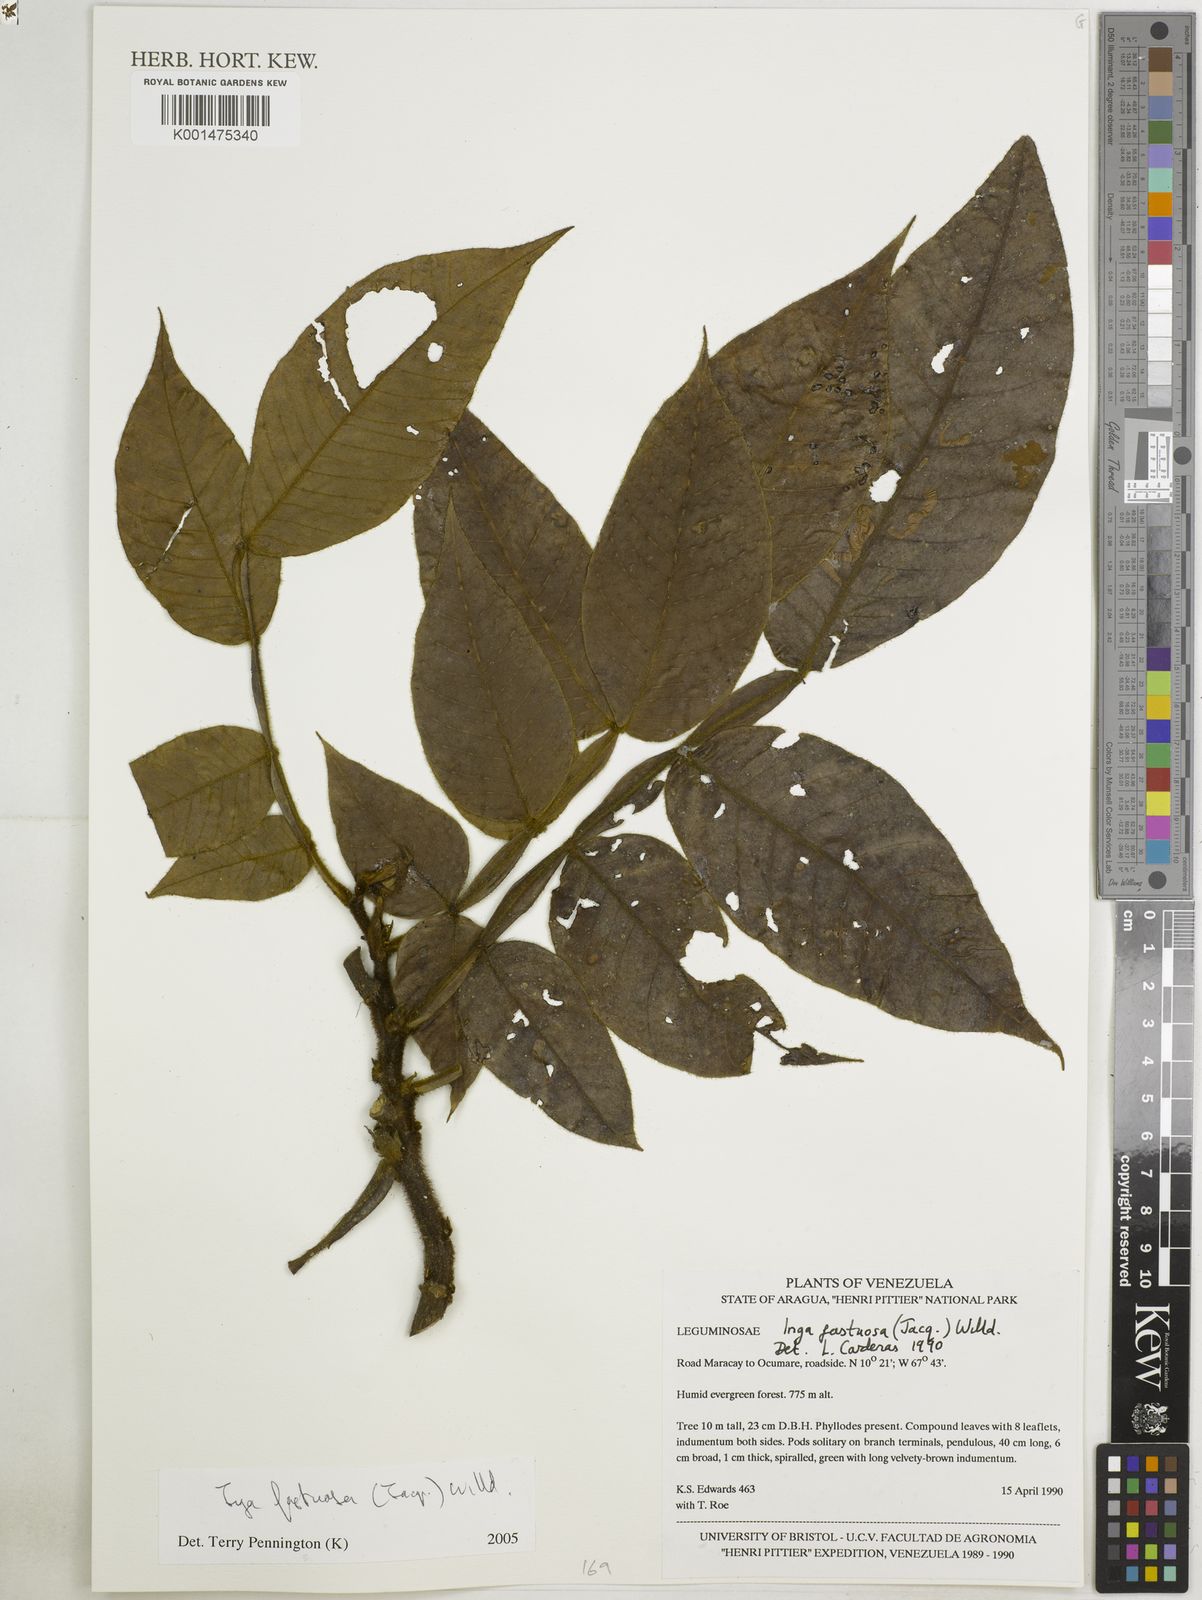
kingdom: Plantae
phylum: Tracheophyta
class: Magnoliopsida
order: Fabales
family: Fabaceae
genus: Inga
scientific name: Inga fastuosa
